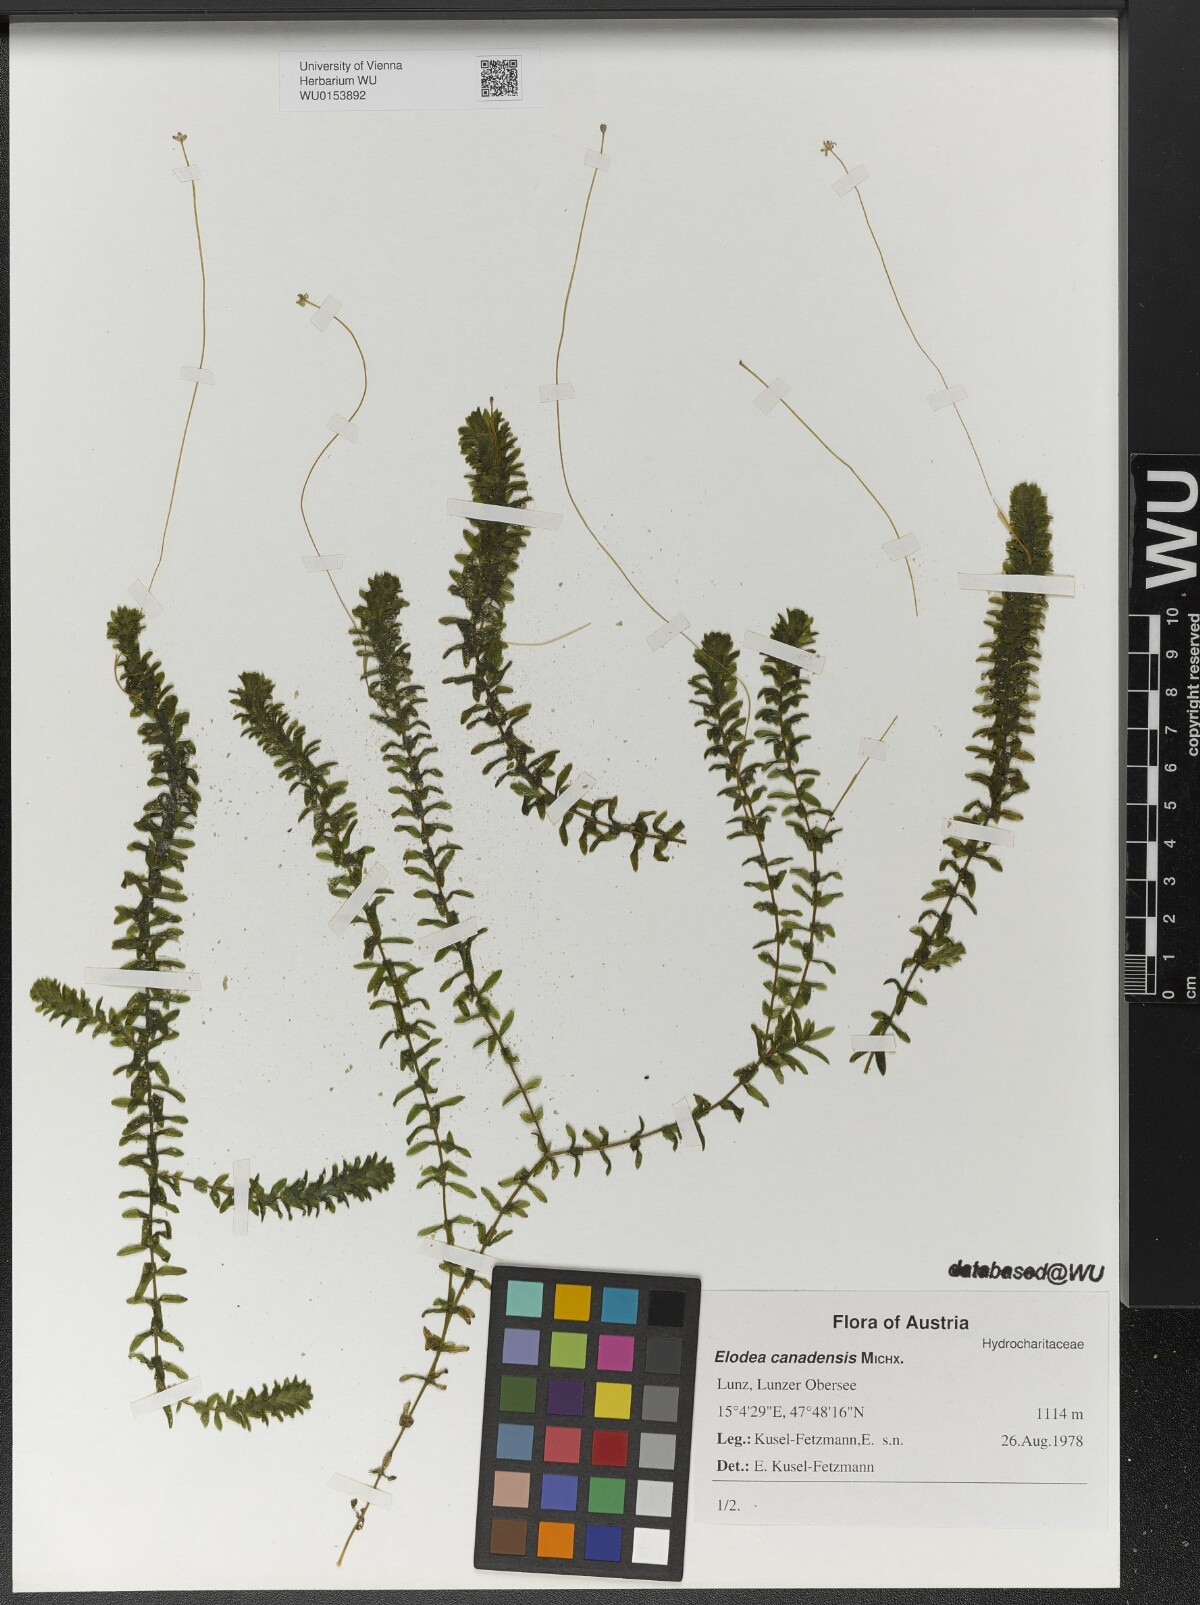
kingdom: Plantae
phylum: Tracheophyta
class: Liliopsida
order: Alismatales
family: Hydrocharitaceae
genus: Elodea
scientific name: Elodea canadensis
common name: Canadian waterweed
